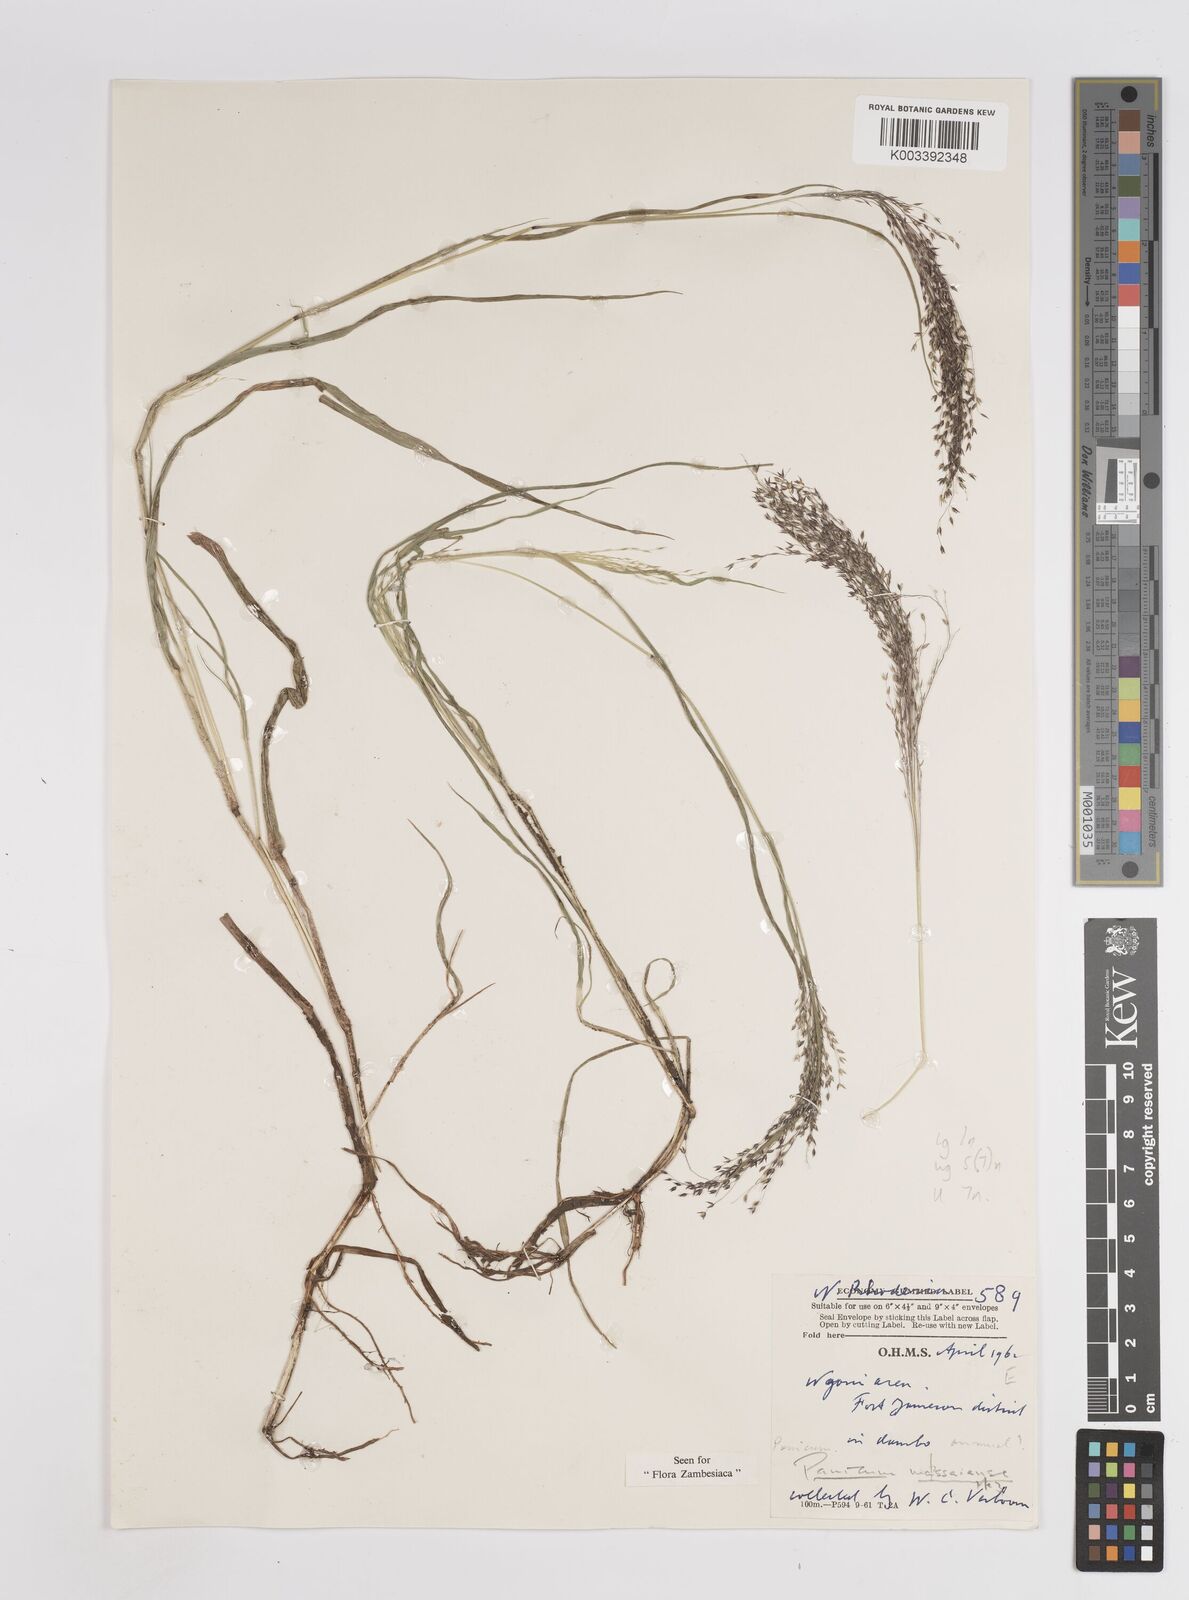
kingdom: Plantae
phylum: Tracheophyta
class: Liliopsida
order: Poales
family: Poaceae
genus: Panicum
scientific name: Panicum massaiense
